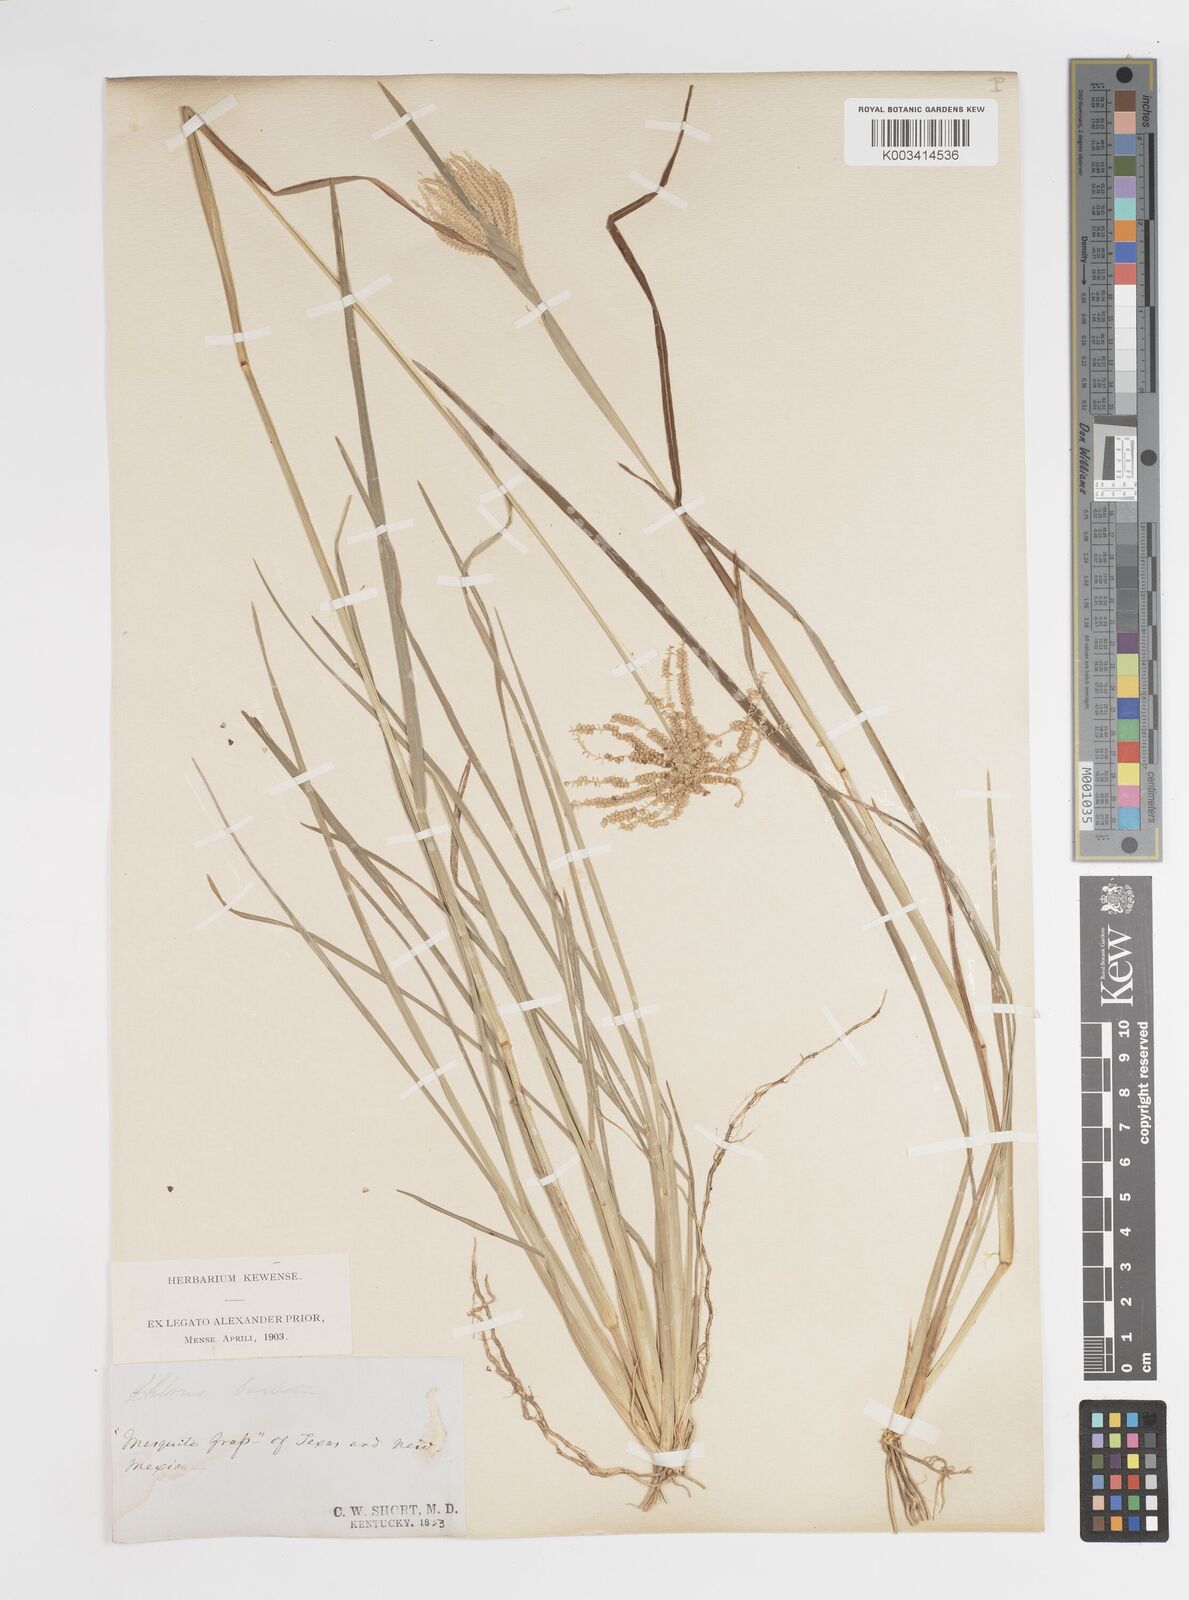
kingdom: Plantae
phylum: Tracheophyta
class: Liliopsida
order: Poales
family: Poaceae
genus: Chloris
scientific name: Chloris cucullata
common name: Hooded windmill grass
